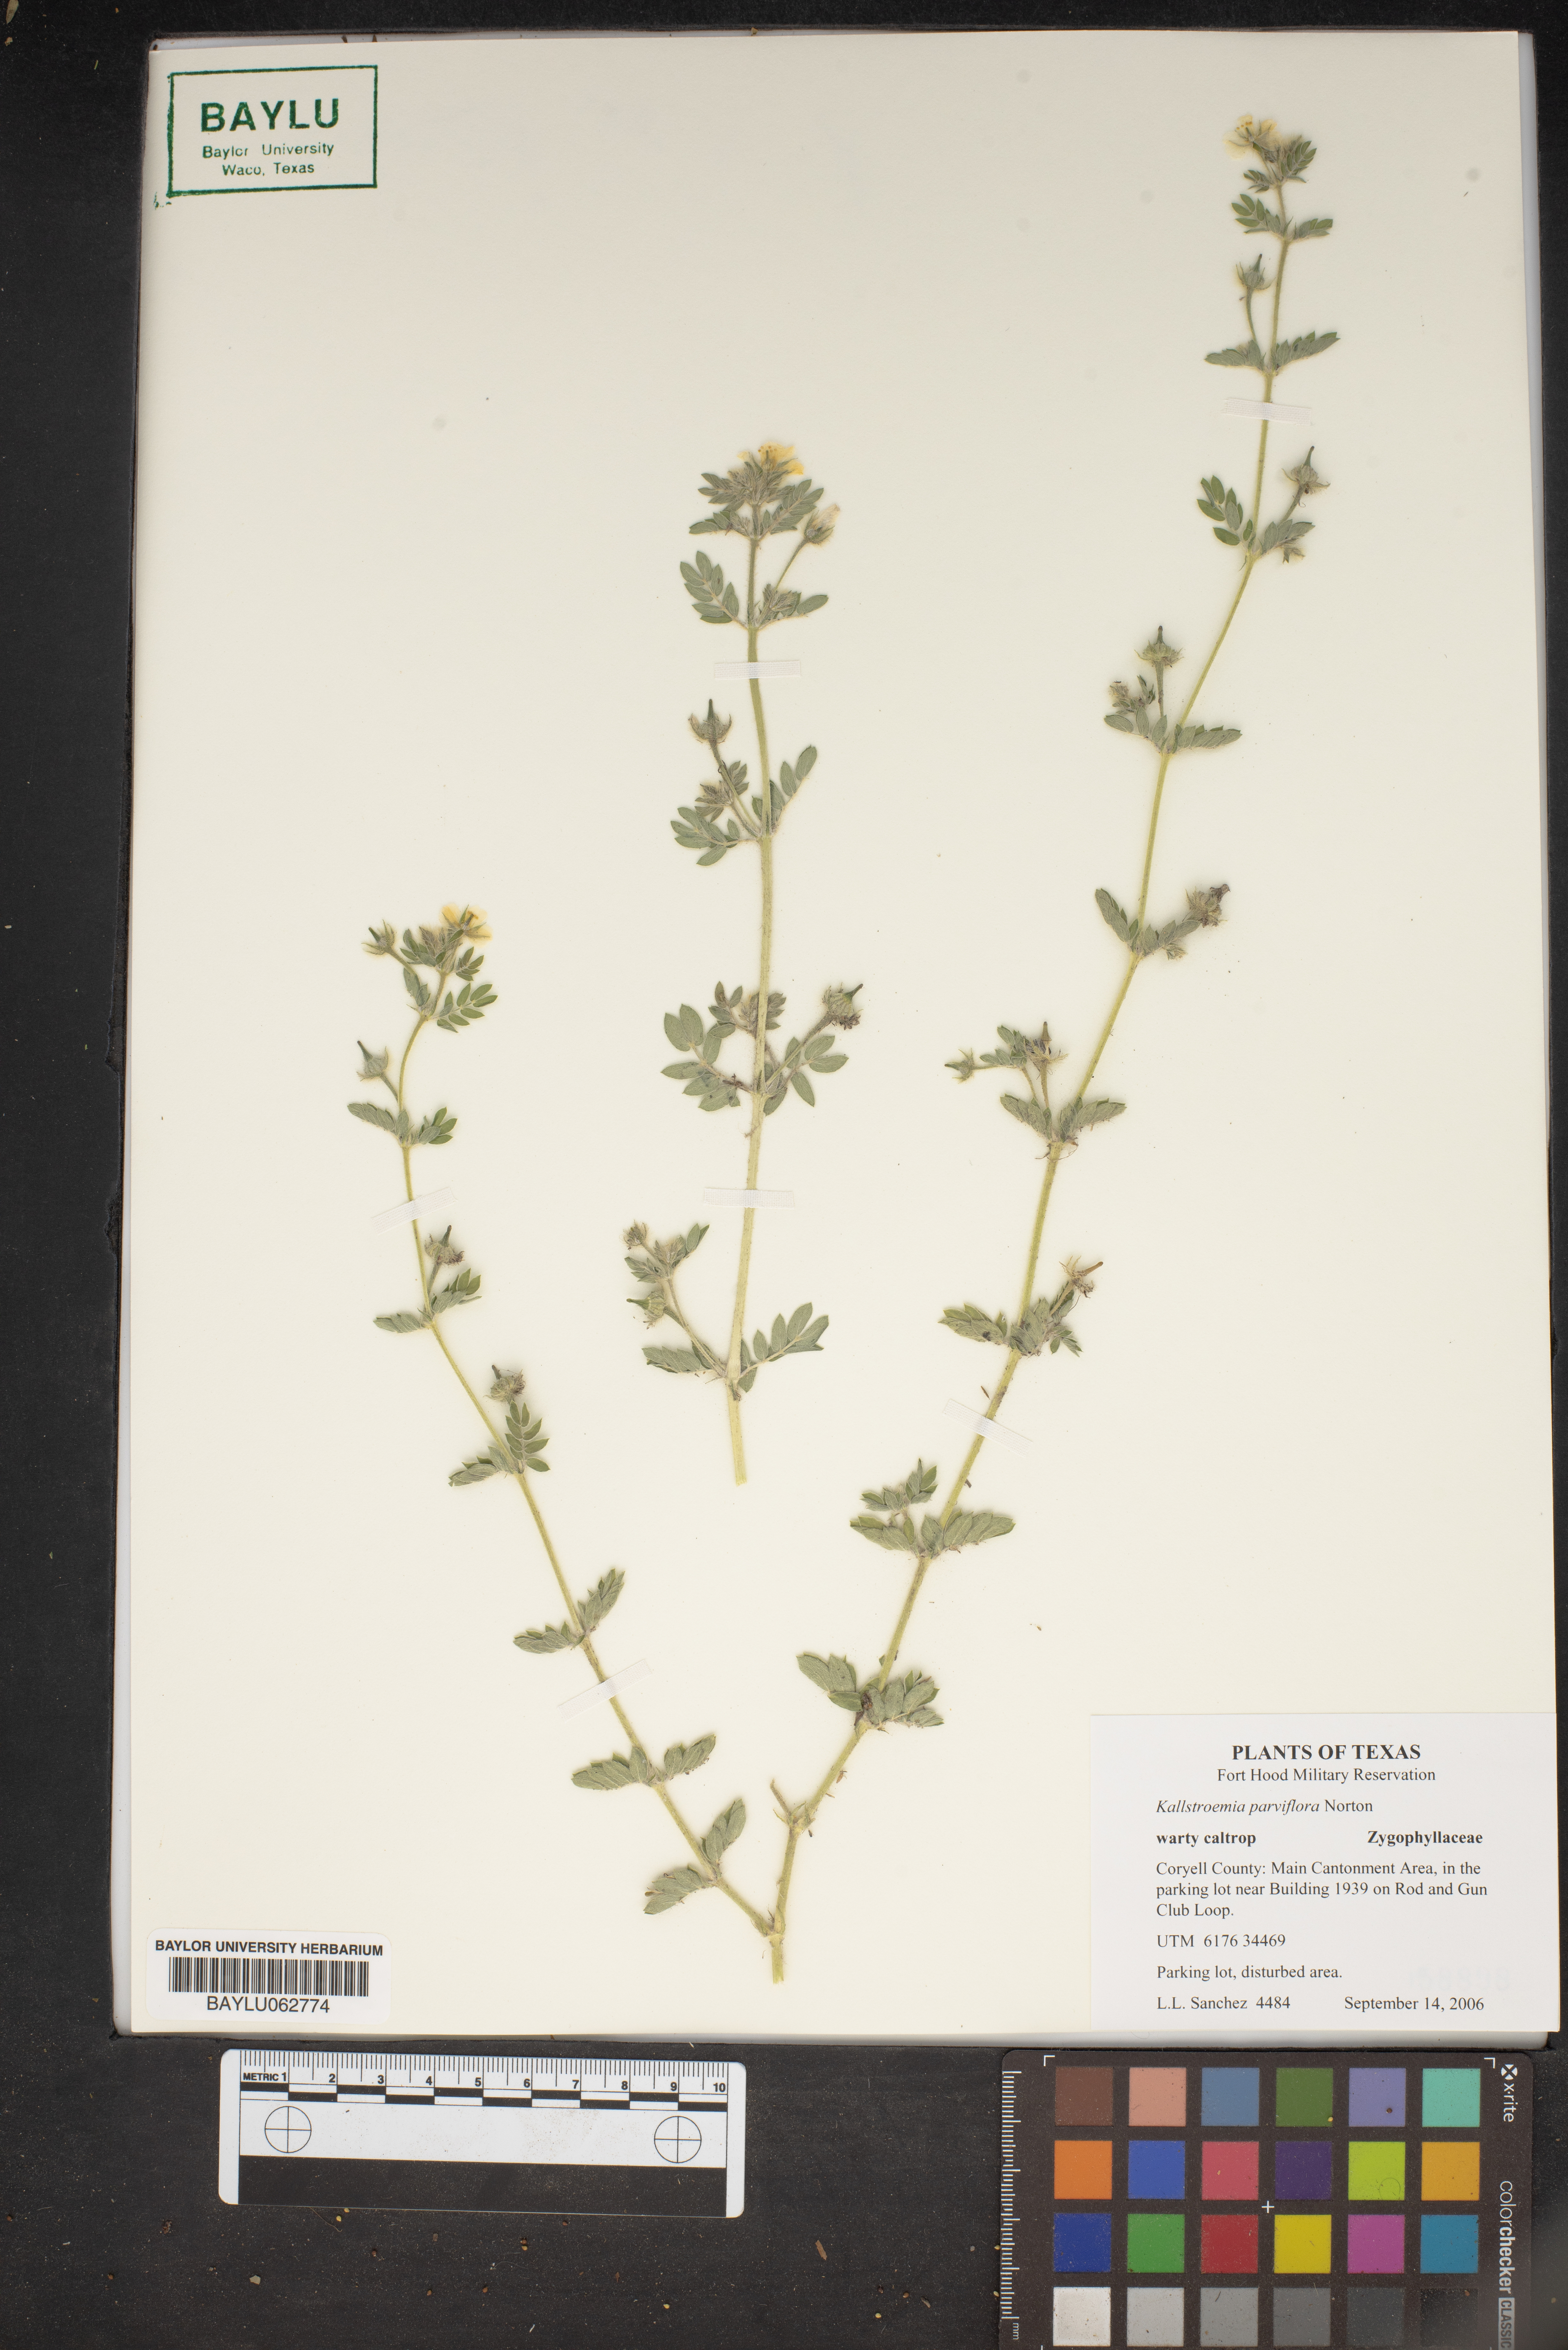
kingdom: Plantae
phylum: Tracheophyta
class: Magnoliopsida
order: Zygophyllales
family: Zygophyllaceae
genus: Kallstroemia
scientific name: Kallstroemia parviflora
